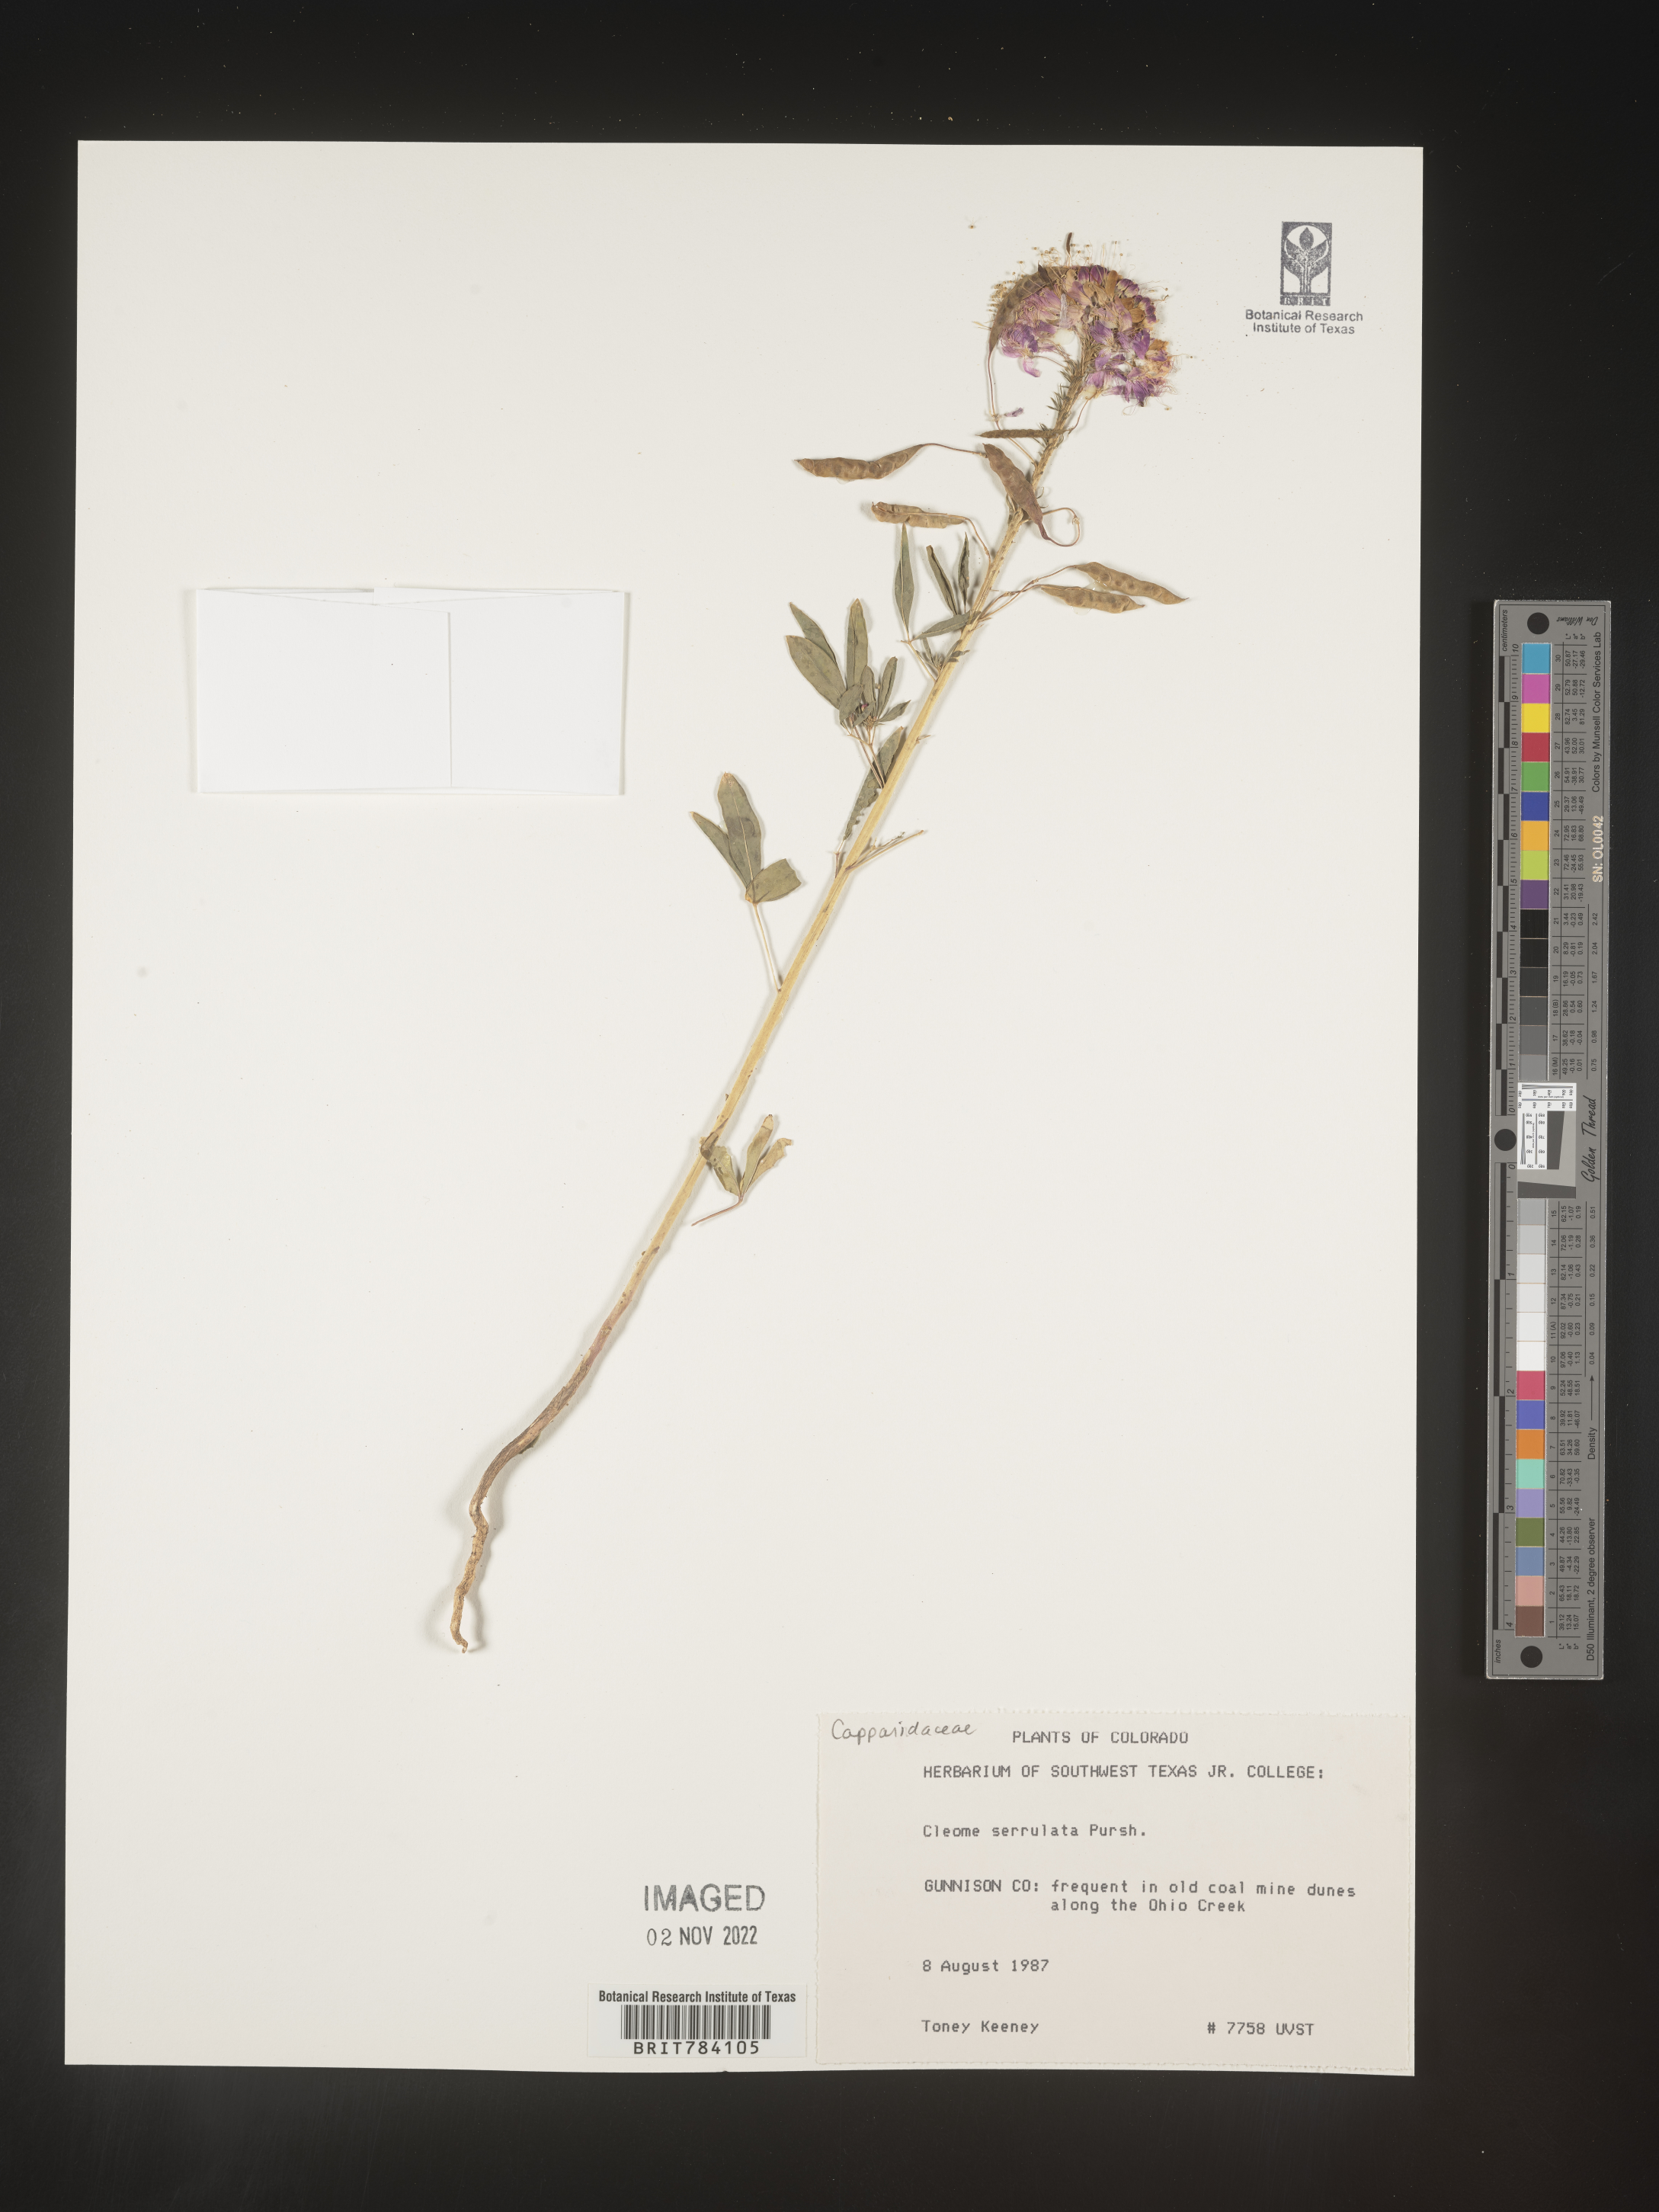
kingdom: Plantae
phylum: Tracheophyta
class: Magnoliopsida
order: Brassicales
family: Cleomaceae
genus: Cleomella
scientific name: Cleomella serrulata
